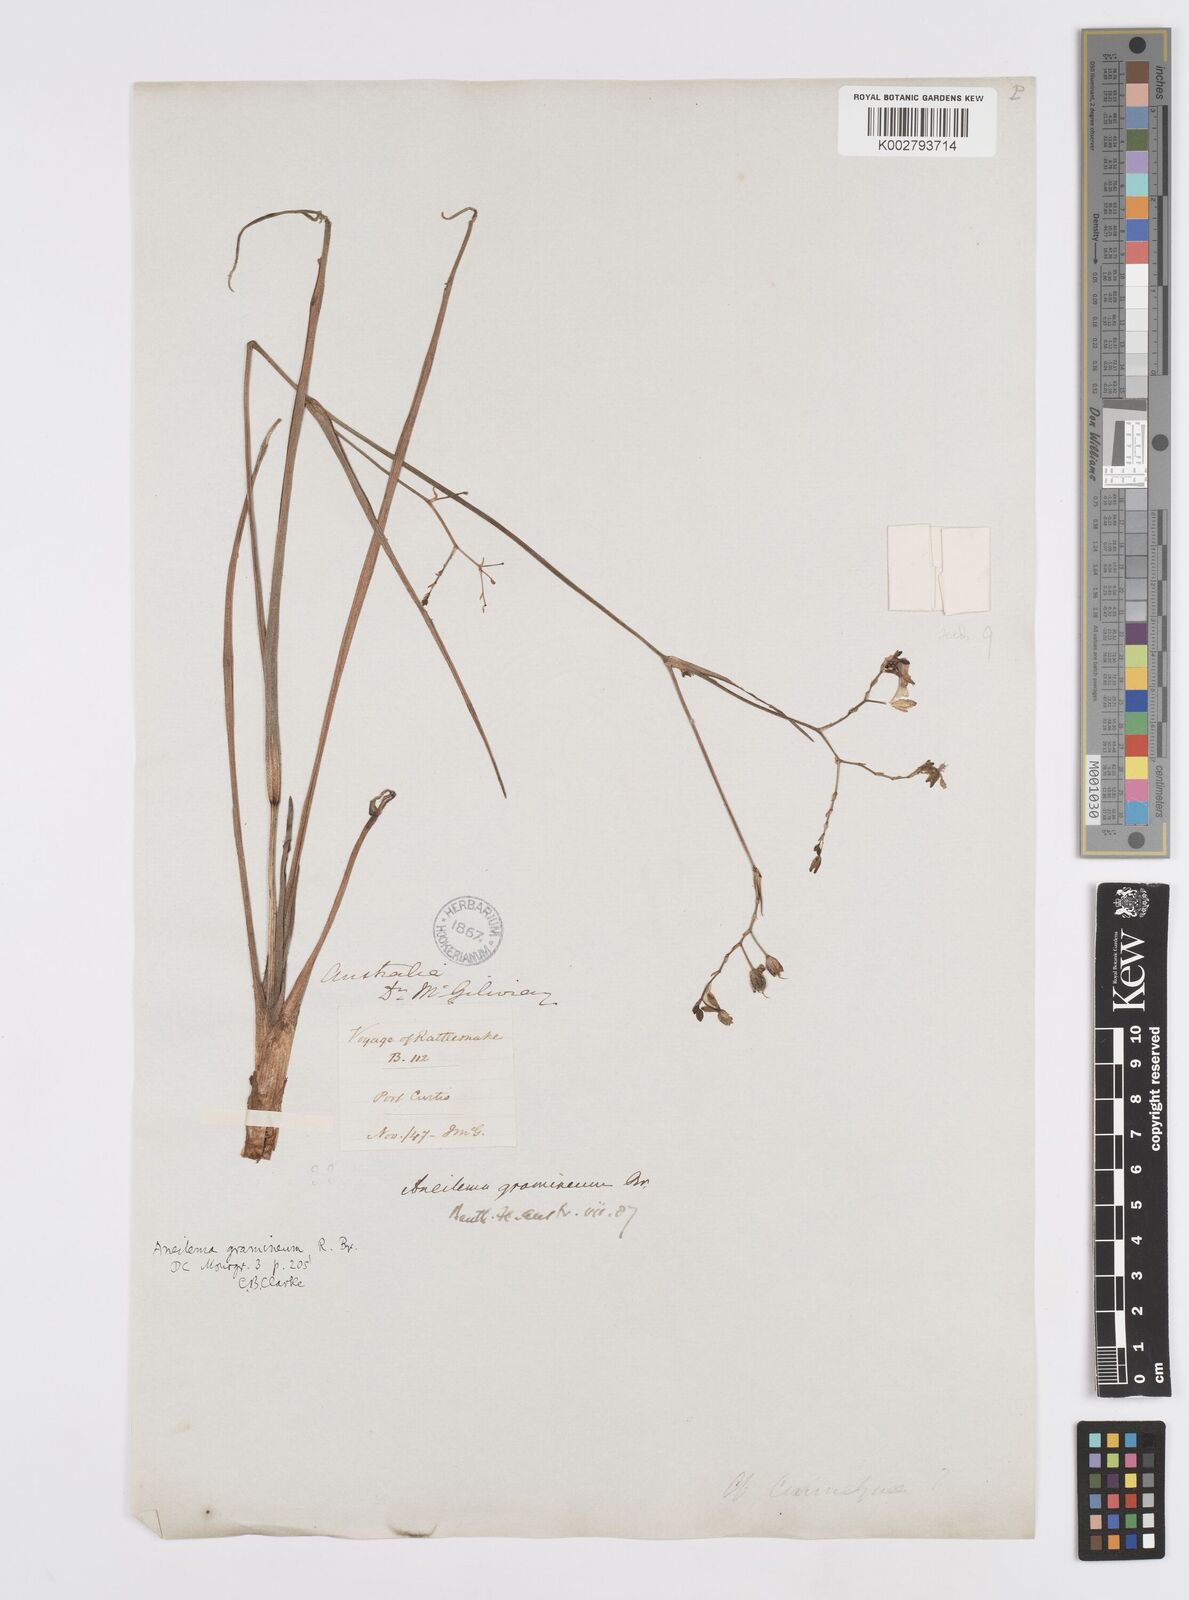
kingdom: Plantae
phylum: Tracheophyta
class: Liliopsida
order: Commelinales
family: Commelinaceae
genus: Murdannia
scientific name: Murdannia graminea
